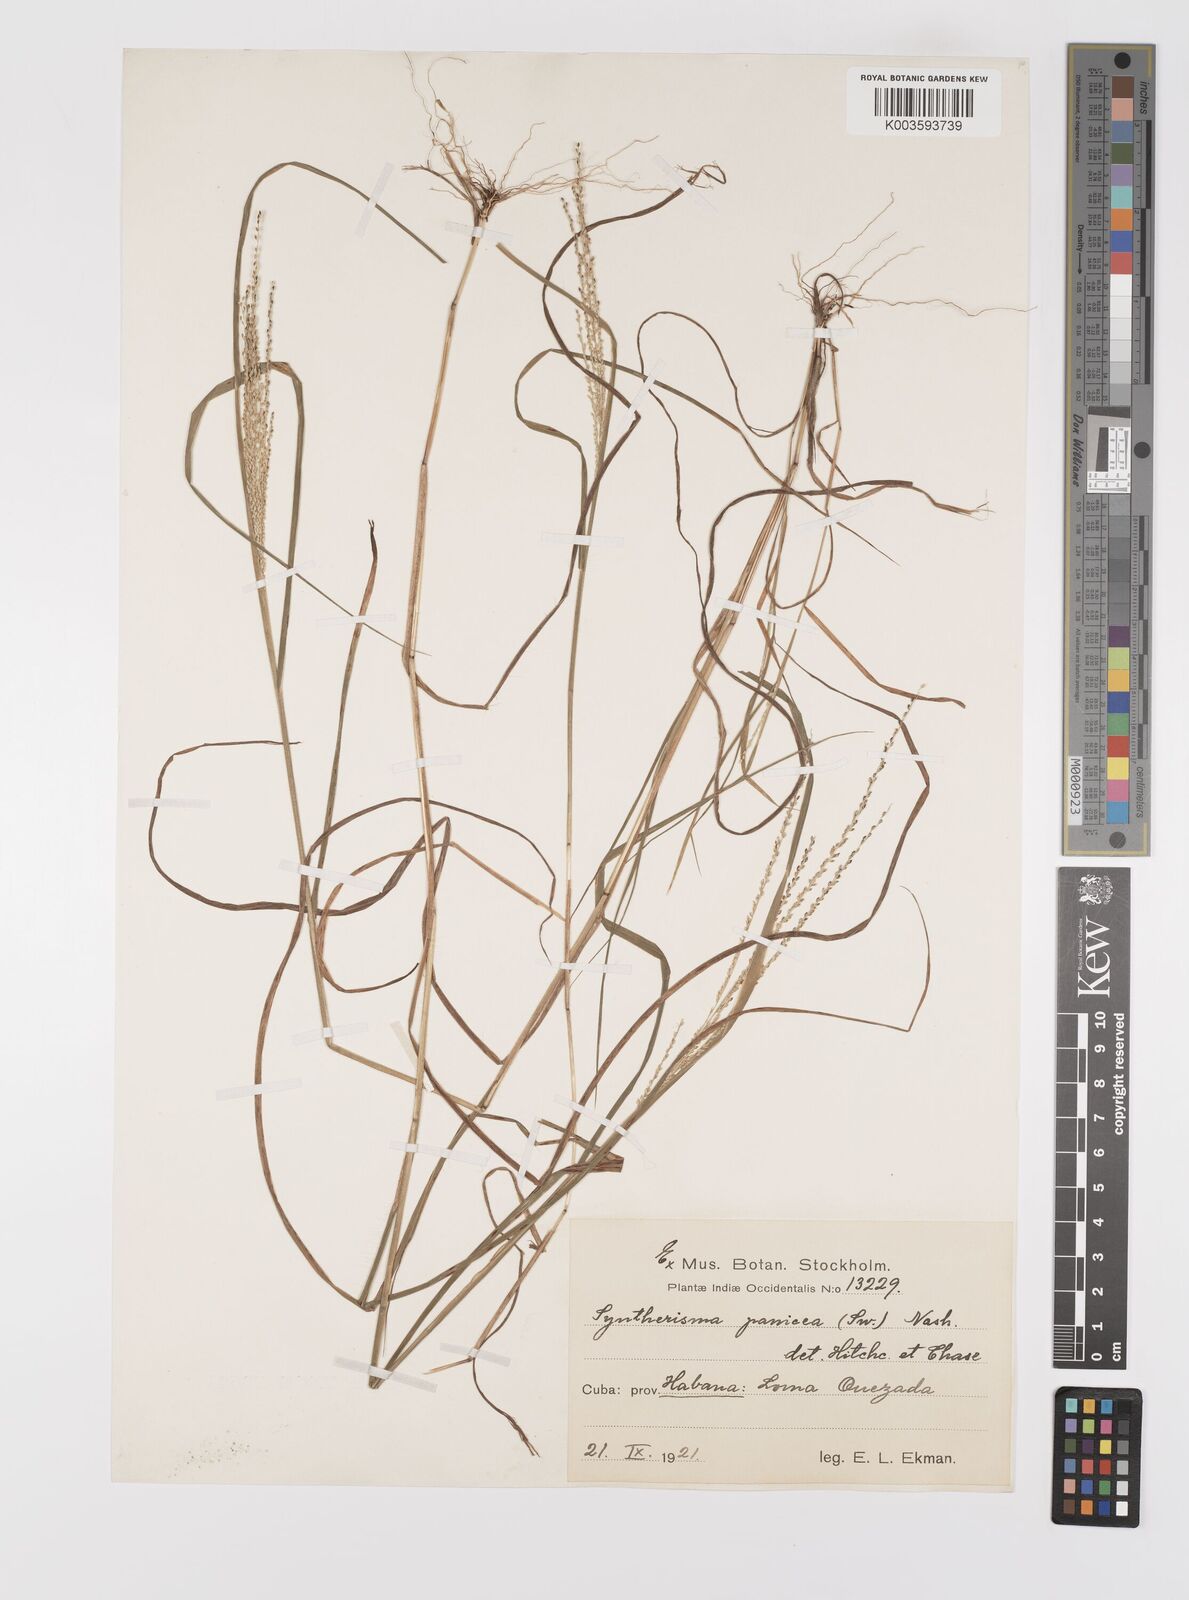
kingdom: Plantae
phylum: Tracheophyta
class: Liliopsida
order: Poales
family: Poaceae
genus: Digitaria
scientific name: Digitaria violascens
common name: Violet crabgrass
